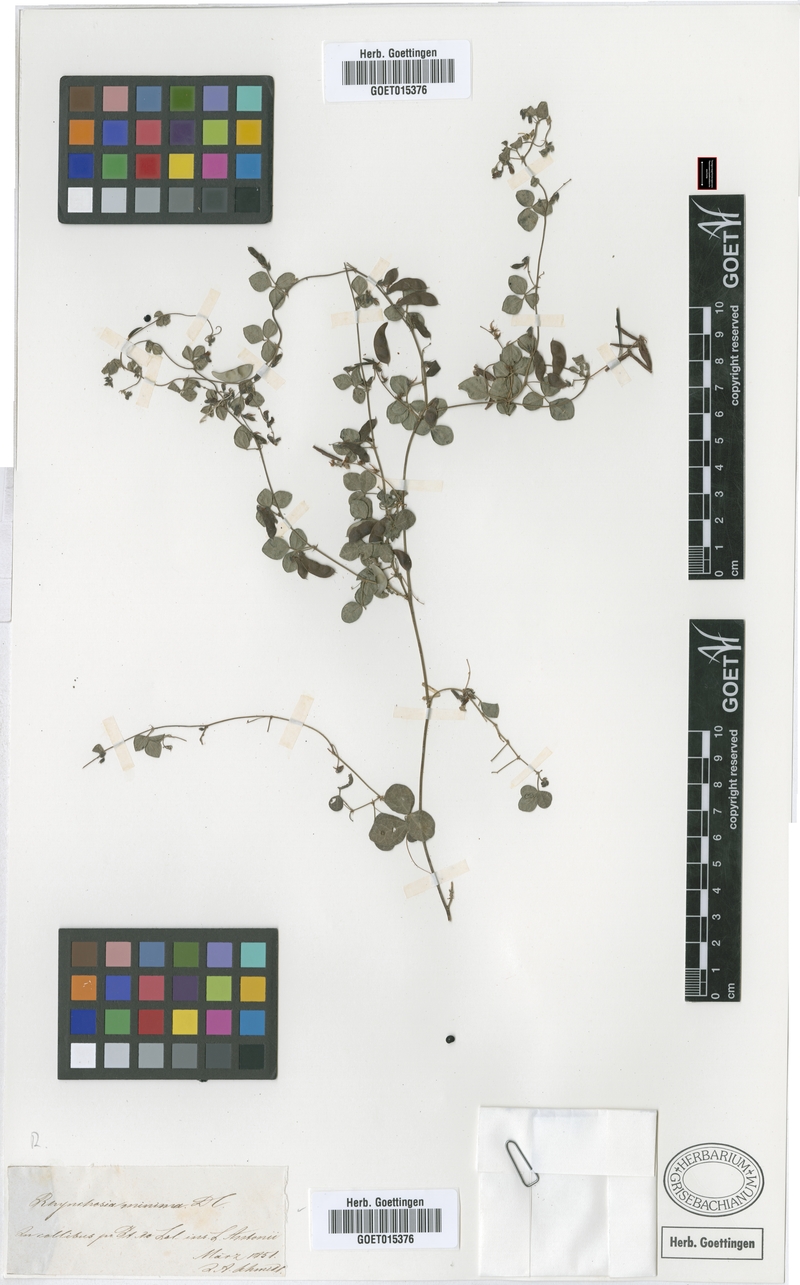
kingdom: Plantae
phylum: Tracheophyta
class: Magnoliopsida
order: Fabales
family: Fabaceae
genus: Rhynchosia
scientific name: Rhynchosia minima
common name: Least snoutbean
